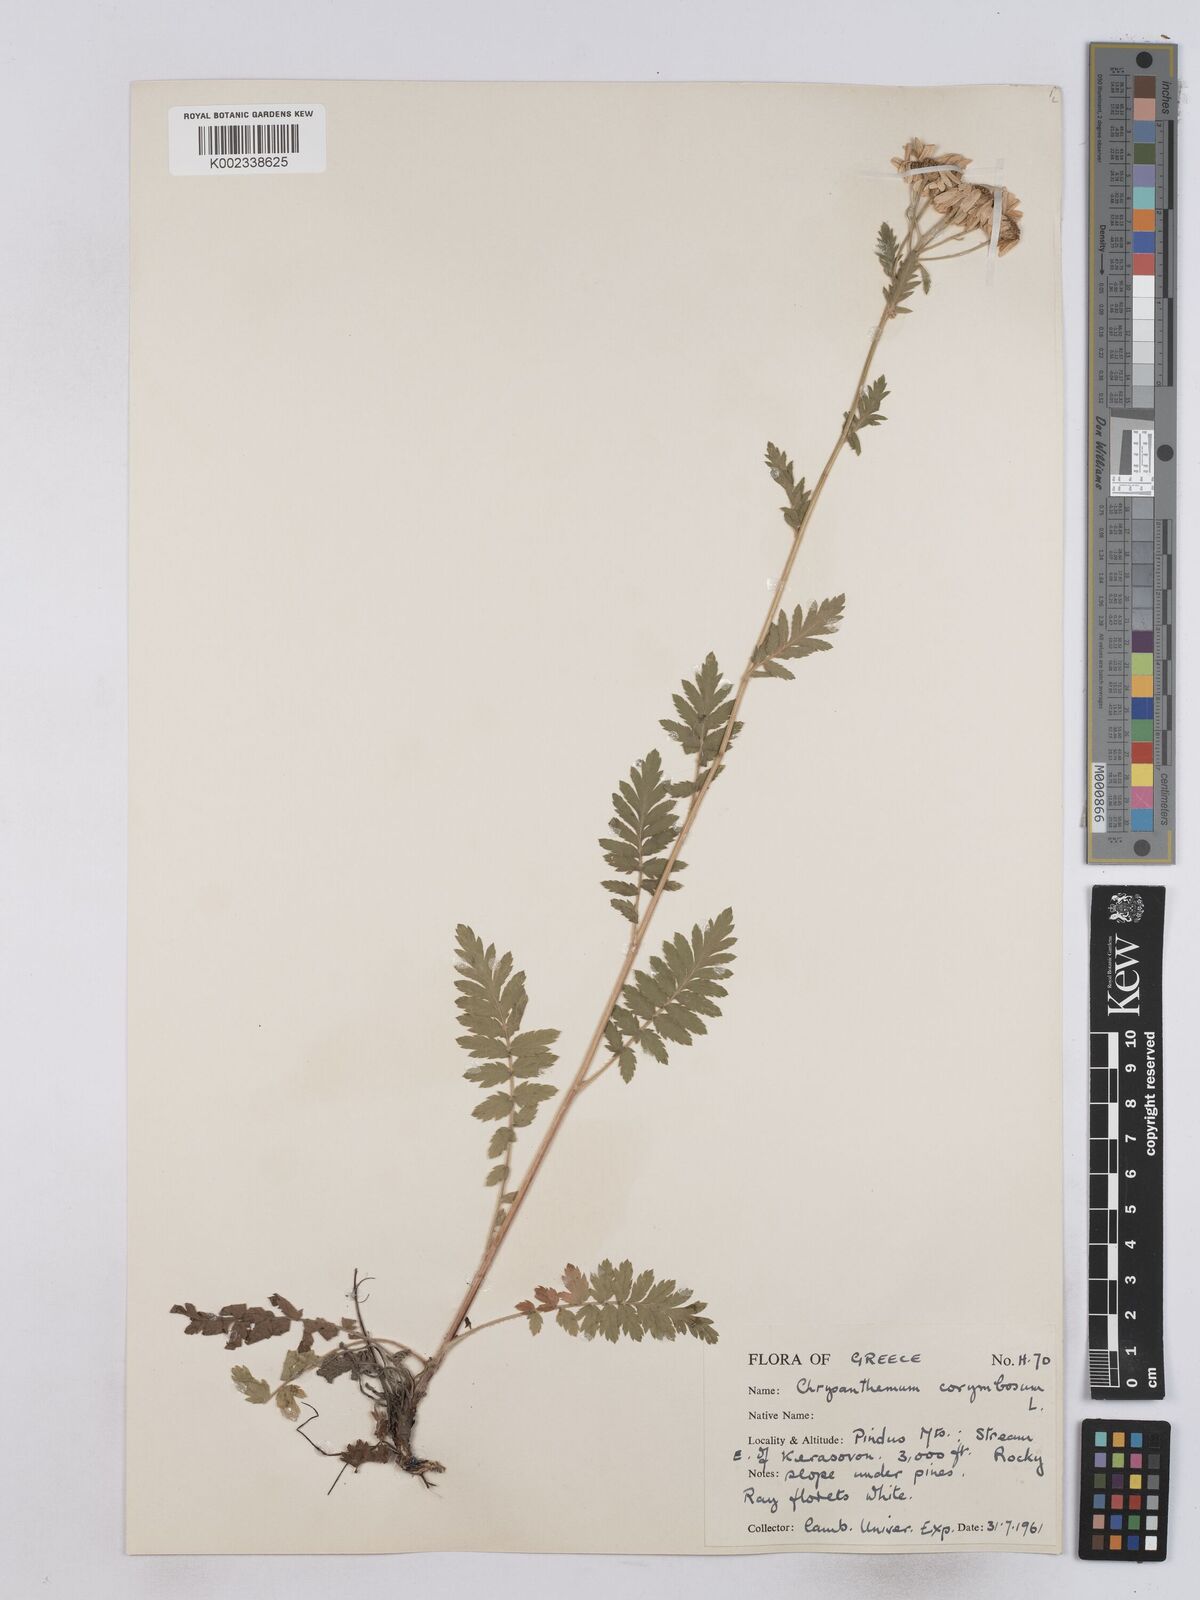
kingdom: Plantae
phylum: Tracheophyta
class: Magnoliopsida
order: Asterales
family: Asteraceae
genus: Tanacetum
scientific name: Tanacetum corymbosum
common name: Scentless feverfew
